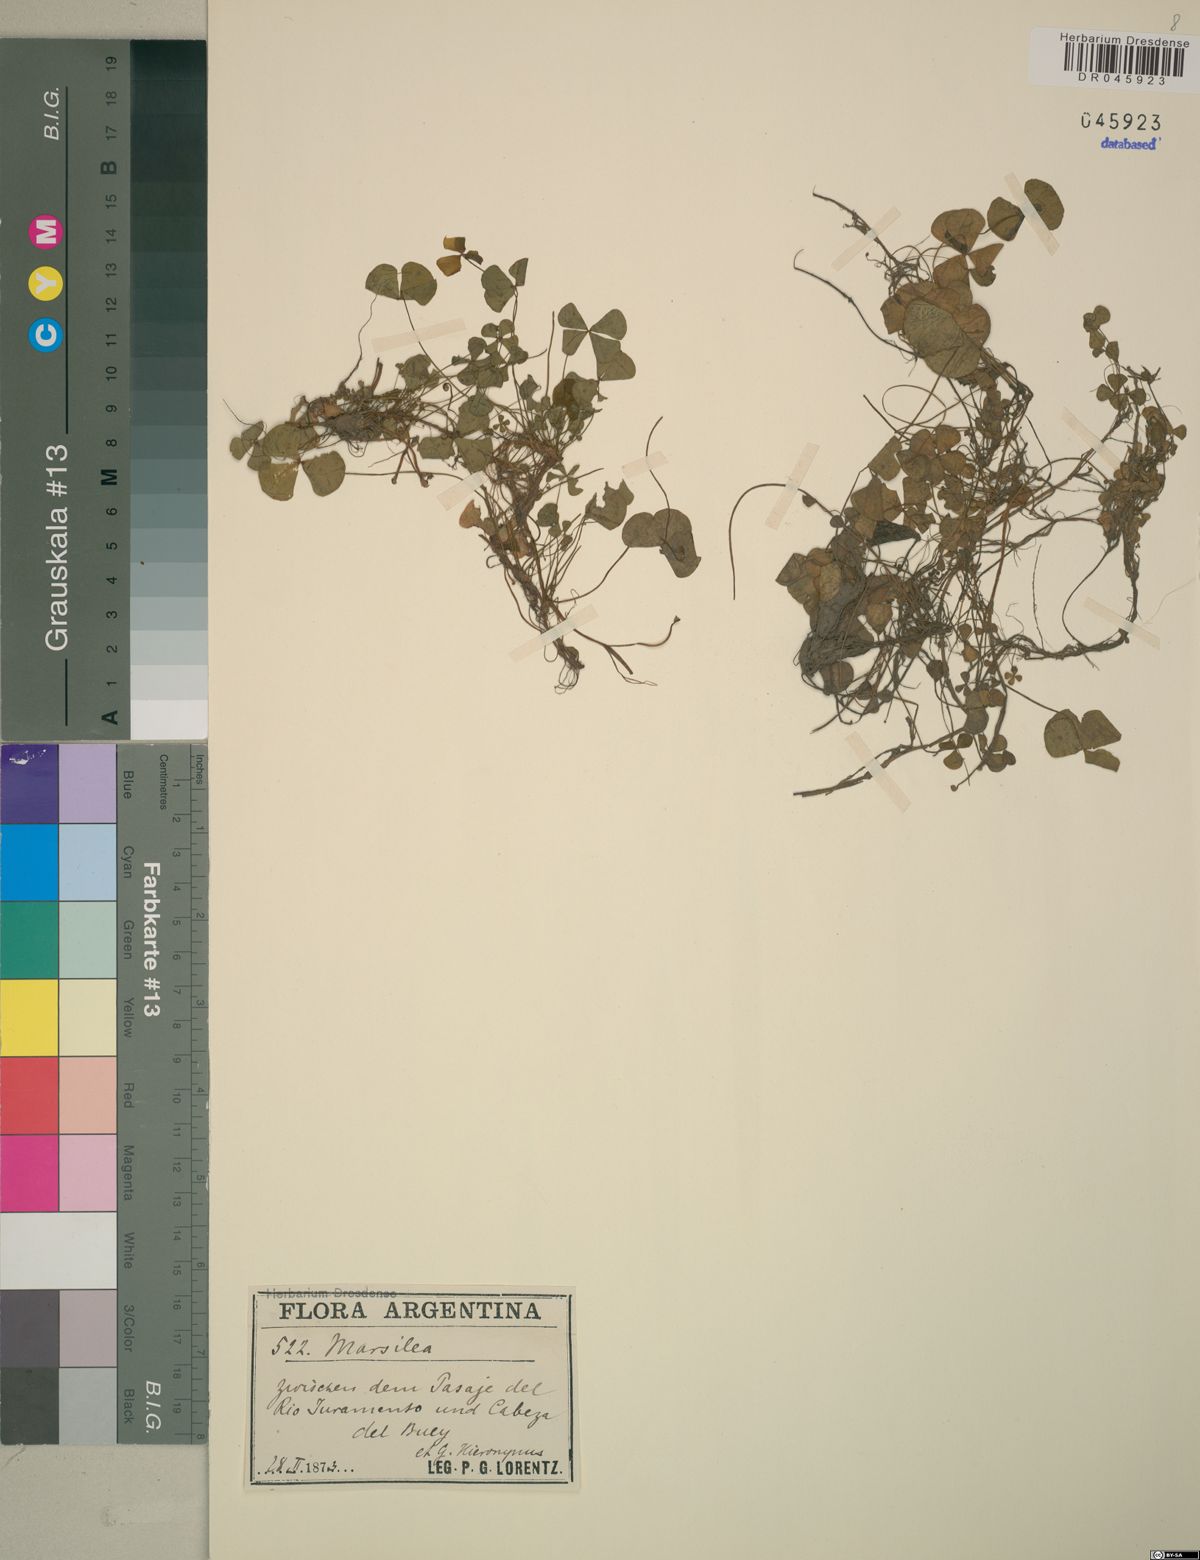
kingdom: Plantae
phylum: Tracheophyta
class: Polypodiopsida
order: Salviniales
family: Marsileaceae
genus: Marsilea
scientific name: Marsilea ancylopoda
